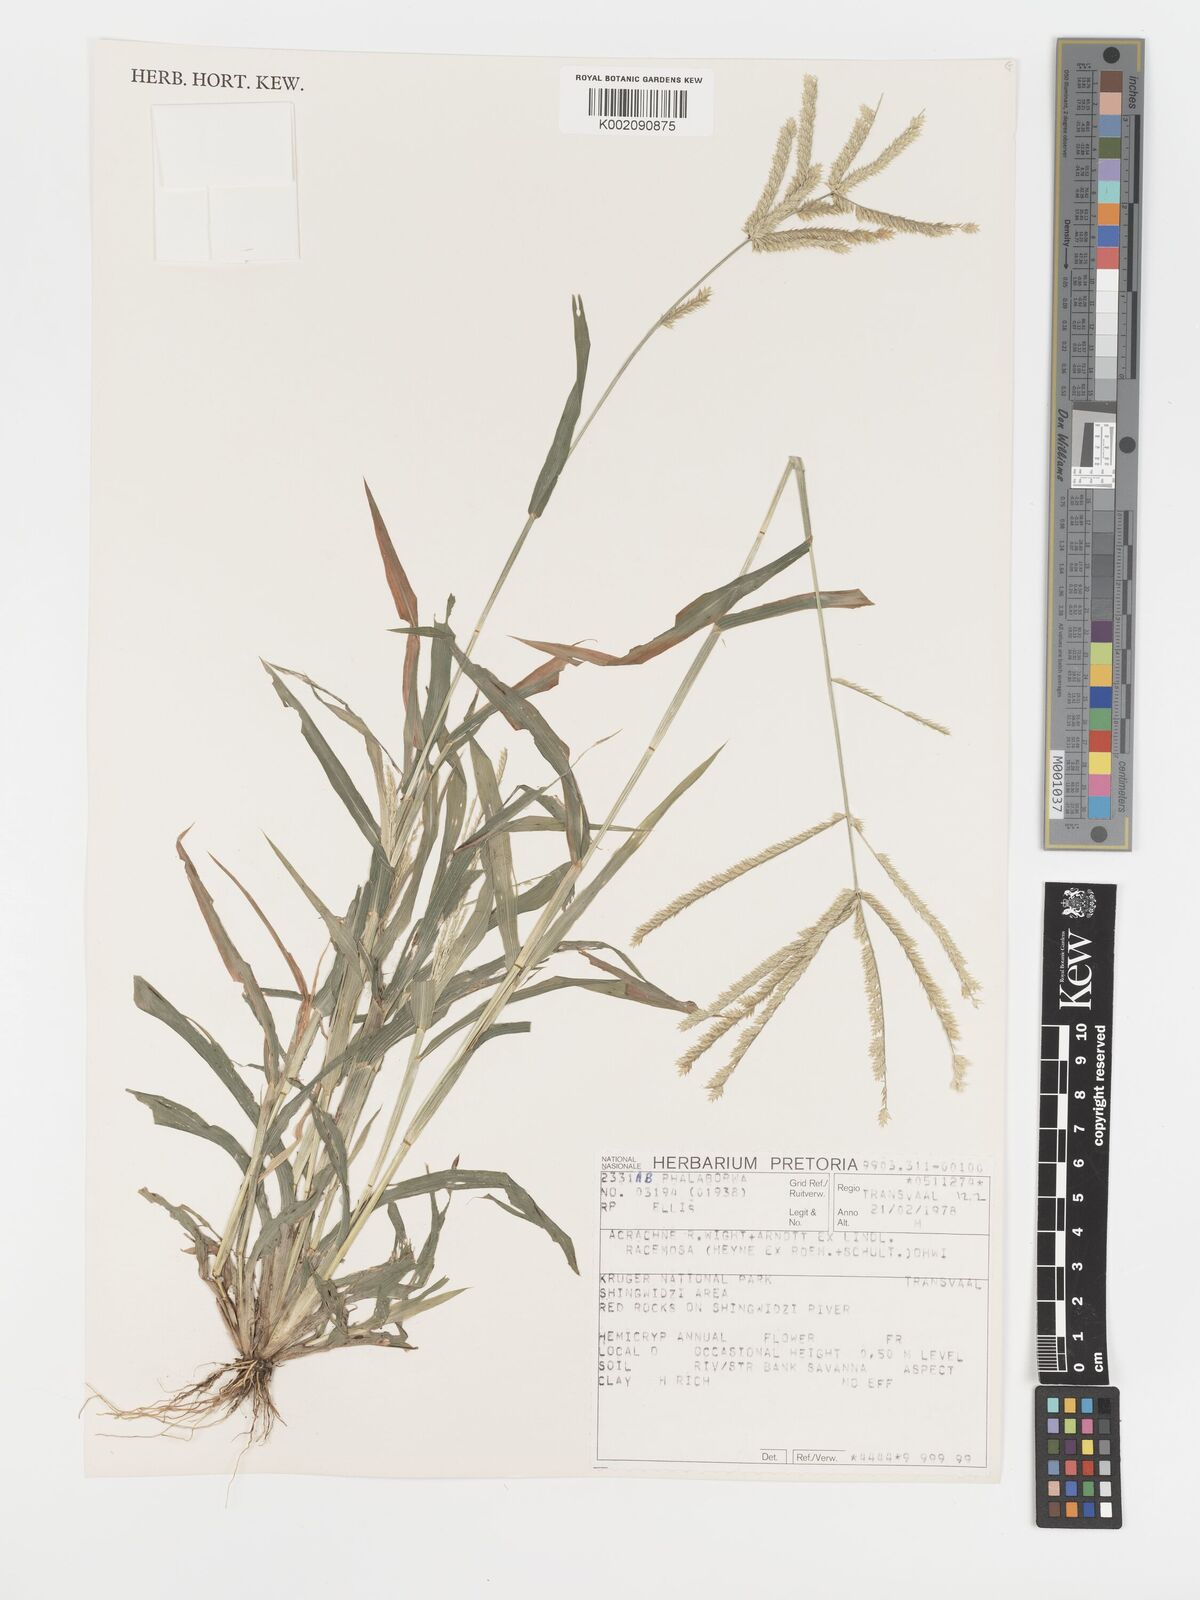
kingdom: Plantae
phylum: Tracheophyta
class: Liliopsida
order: Poales
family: Poaceae
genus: Acrachne
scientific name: Acrachne racemosa
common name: Goosegrass
